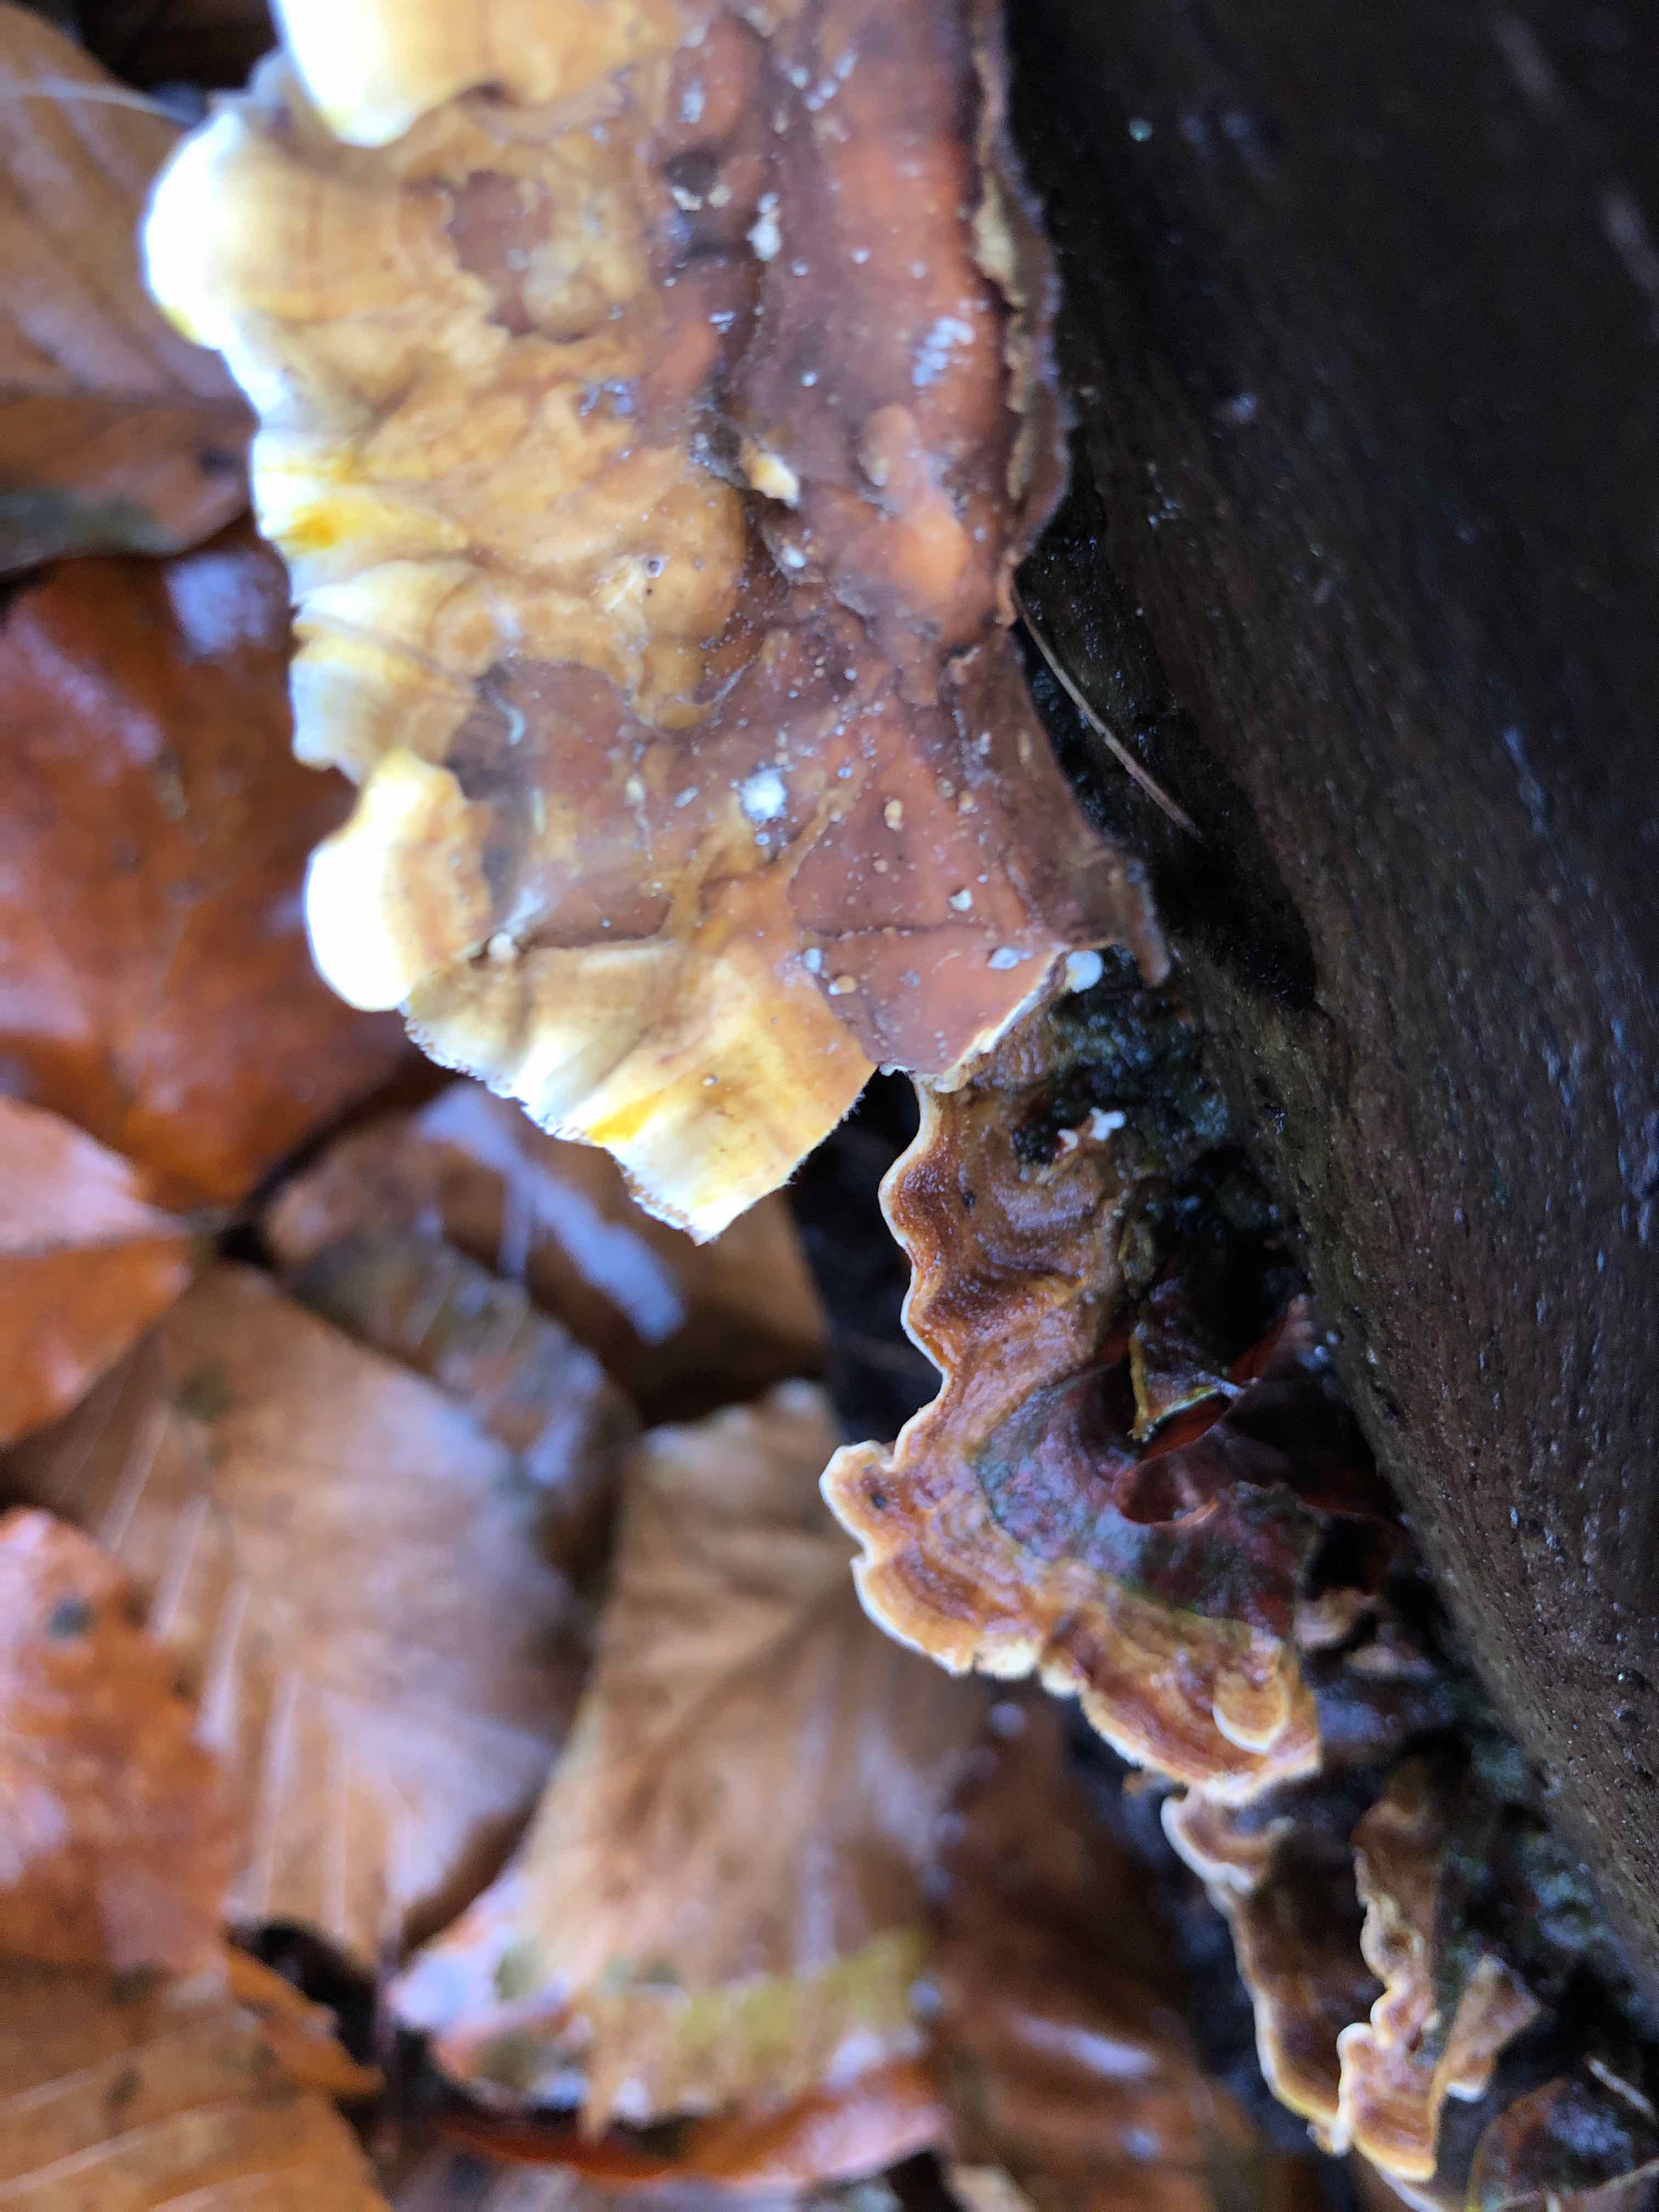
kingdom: Fungi
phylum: Basidiomycota
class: Agaricomycetes
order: Russulales
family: Stereaceae
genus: Stereum
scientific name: Stereum hirsutum
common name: håret lædersvamp
